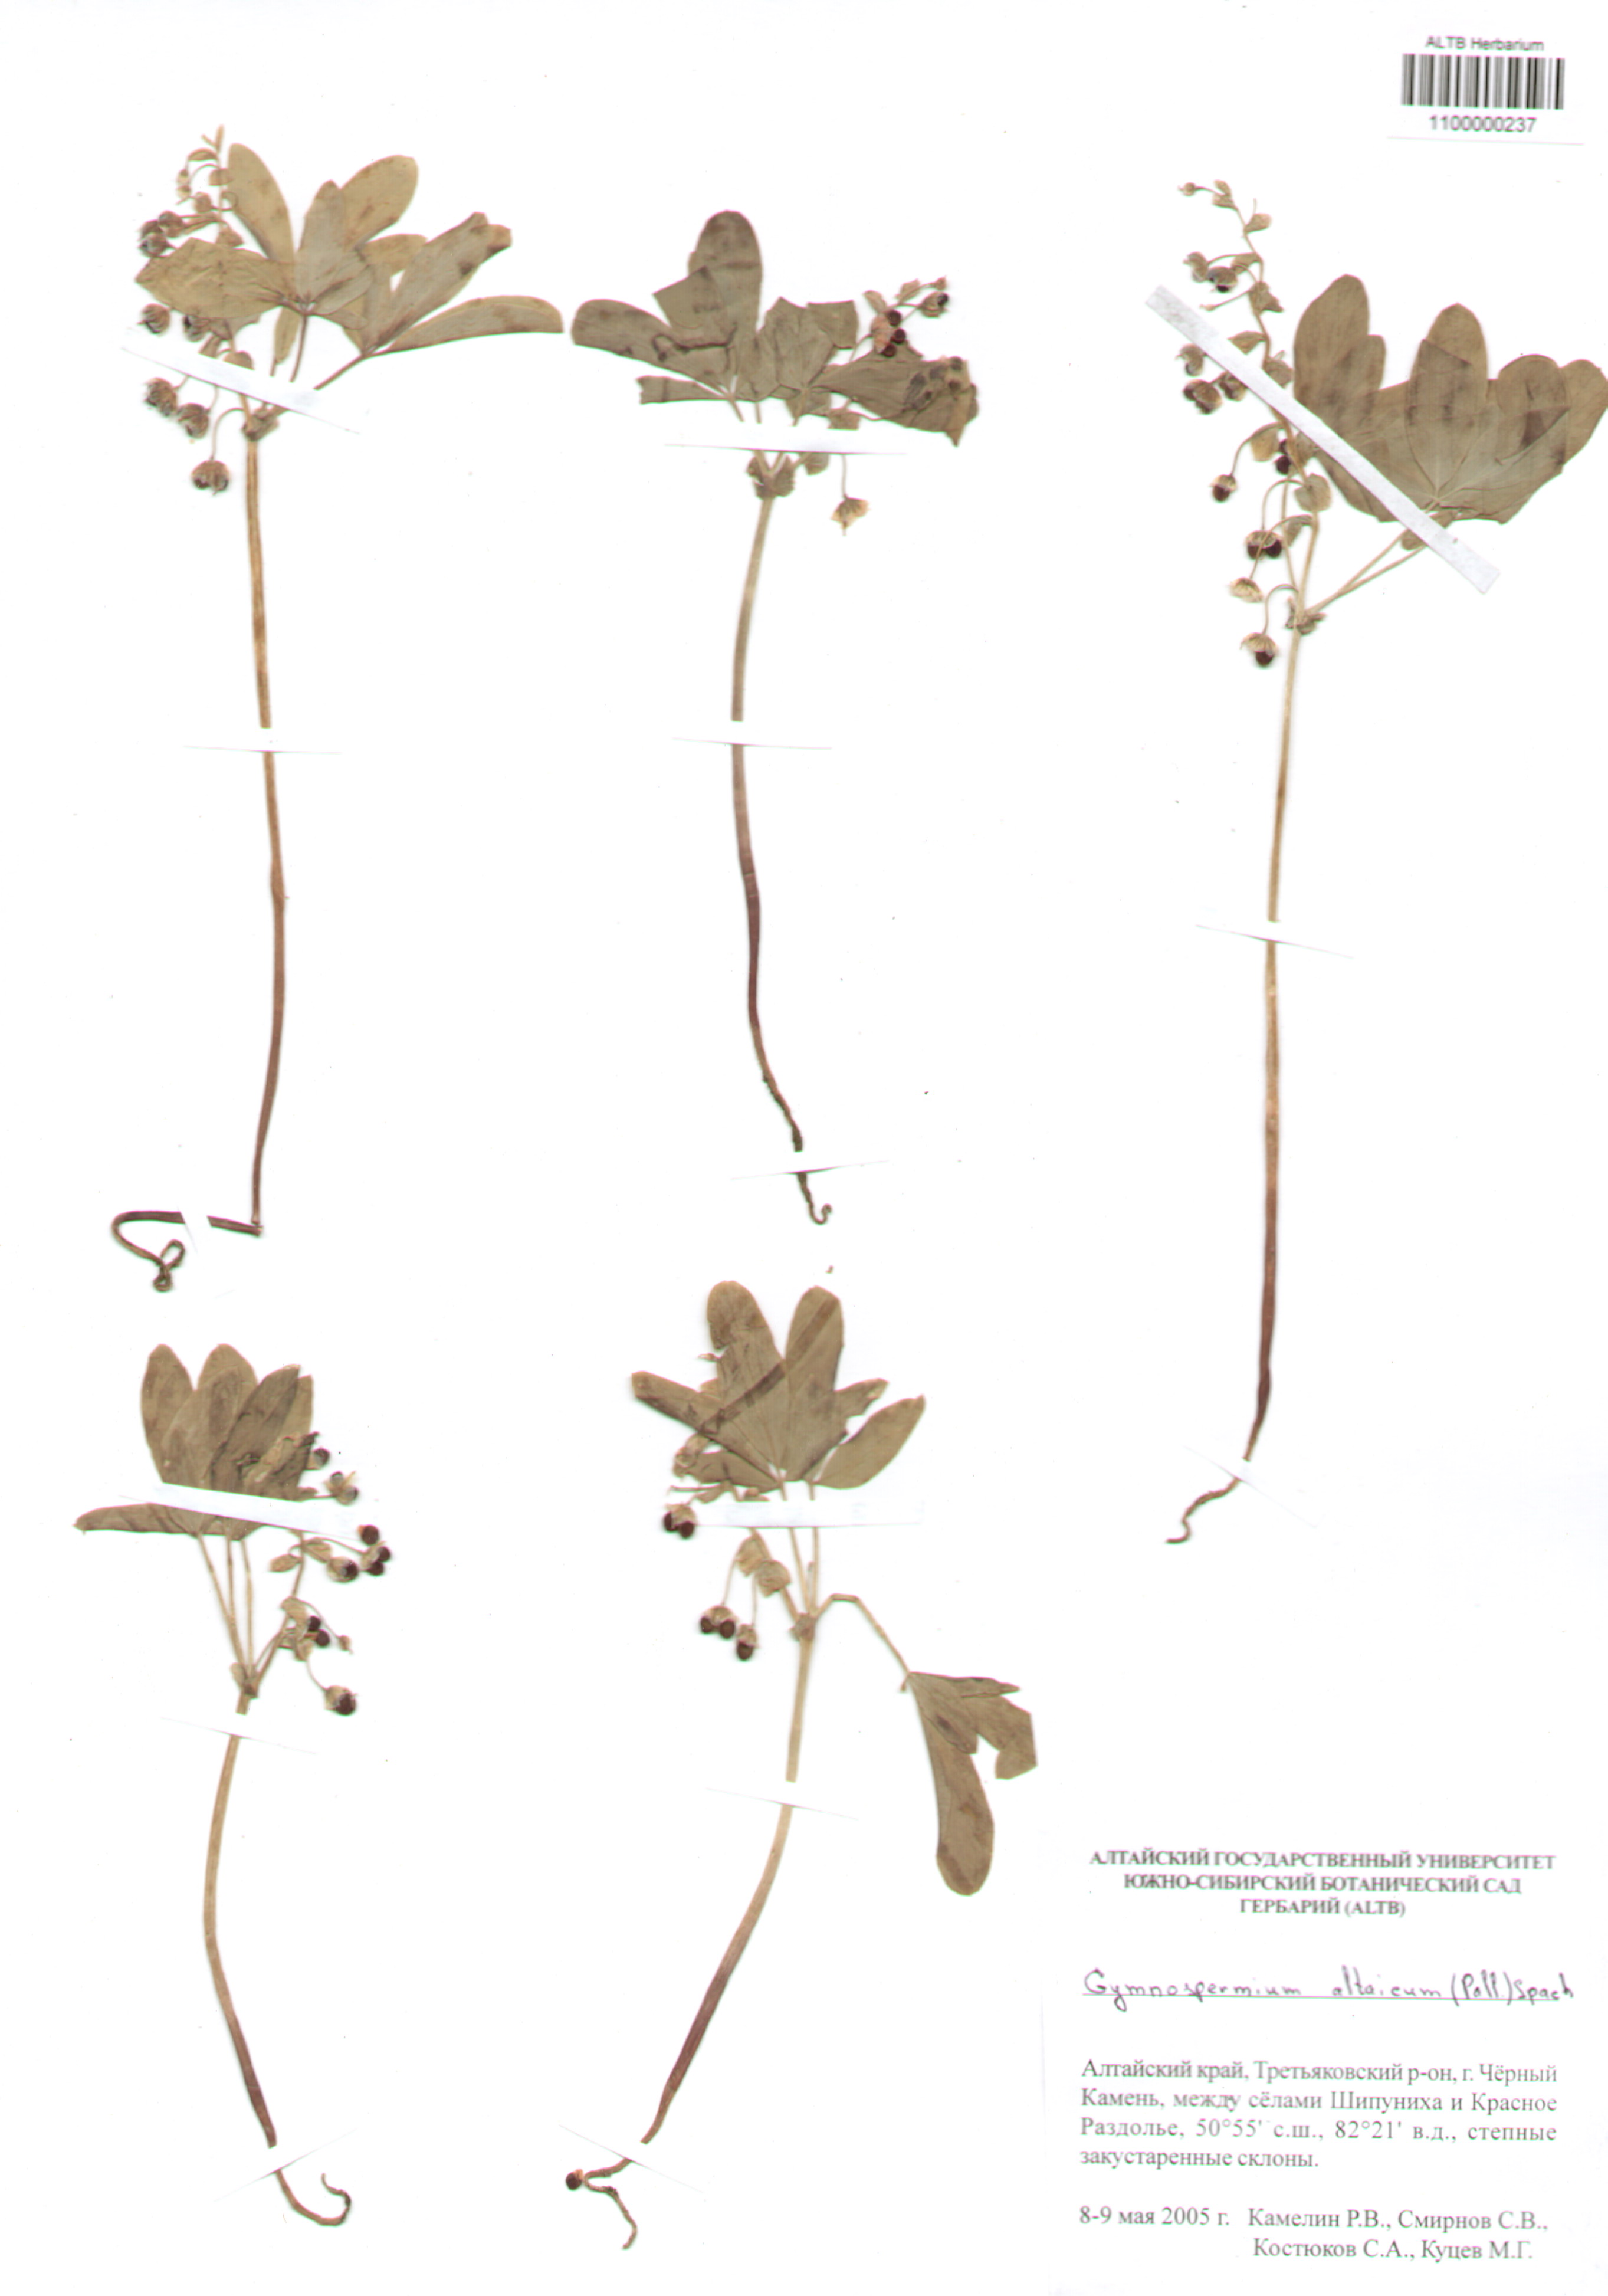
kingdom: Plantae
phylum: Tracheophyta
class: Magnoliopsida
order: Ranunculales
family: Berberidaceae
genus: Gymnospermium
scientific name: Gymnospermium altaicum
